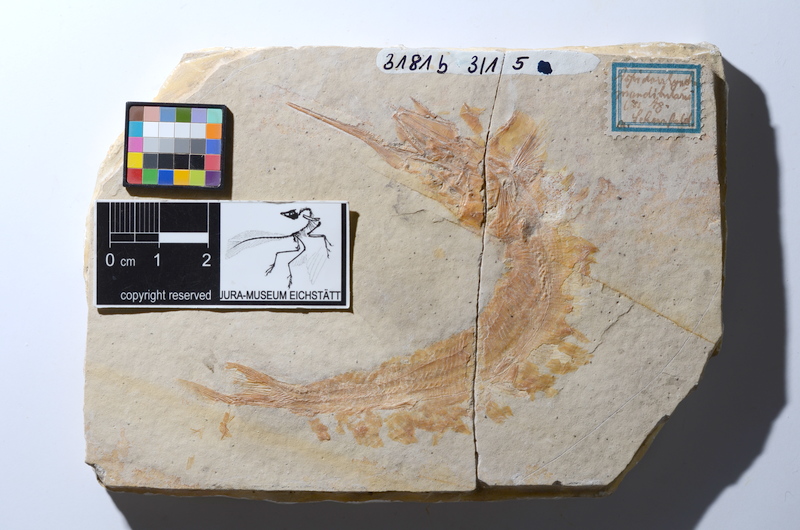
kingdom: Animalia
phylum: Chordata
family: Aspidorhynchidae
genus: Aspidorhynchus
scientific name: Aspidorhynchus acutirostris
